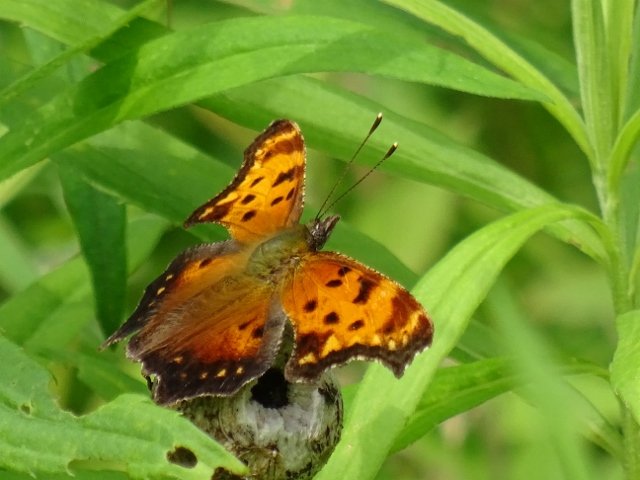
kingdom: Animalia
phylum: Arthropoda
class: Insecta
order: Lepidoptera
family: Nymphalidae
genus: Polygonia
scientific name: Polygonia progne
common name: Gray Comma
